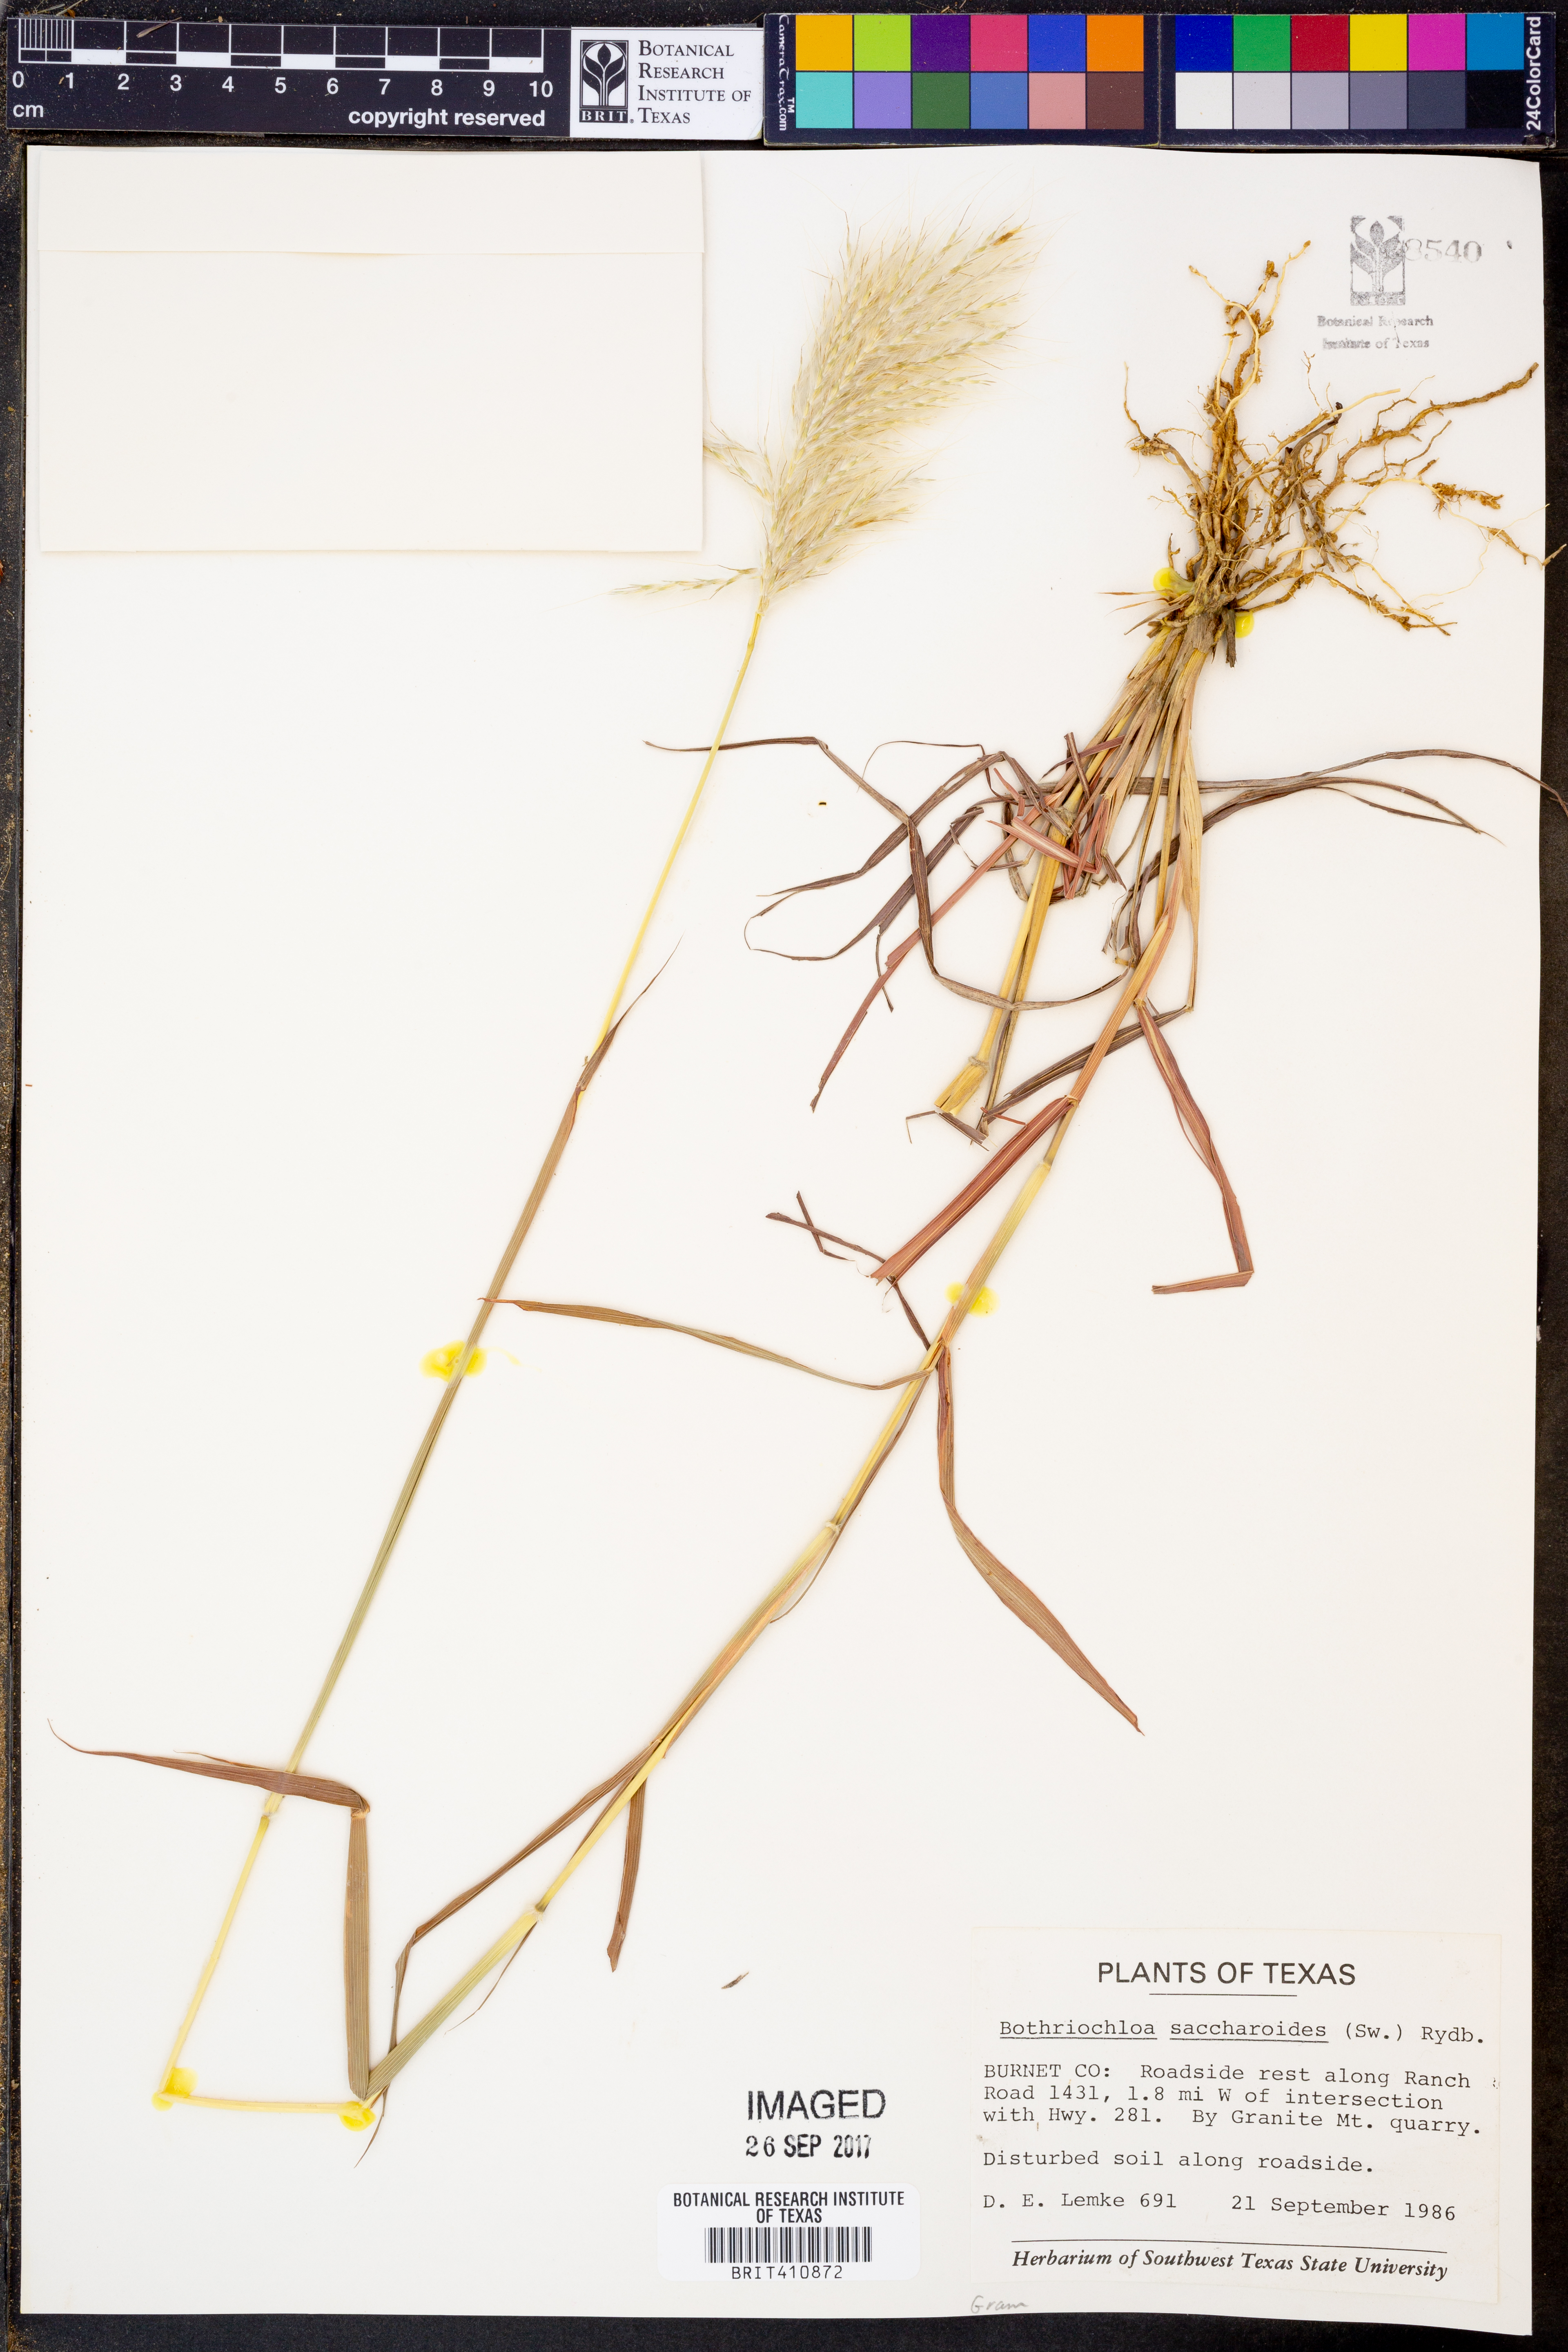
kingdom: Plantae
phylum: Tracheophyta
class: Liliopsida
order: Poales
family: Poaceae
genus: Bothriochloa
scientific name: Bothriochloa saccharoides
